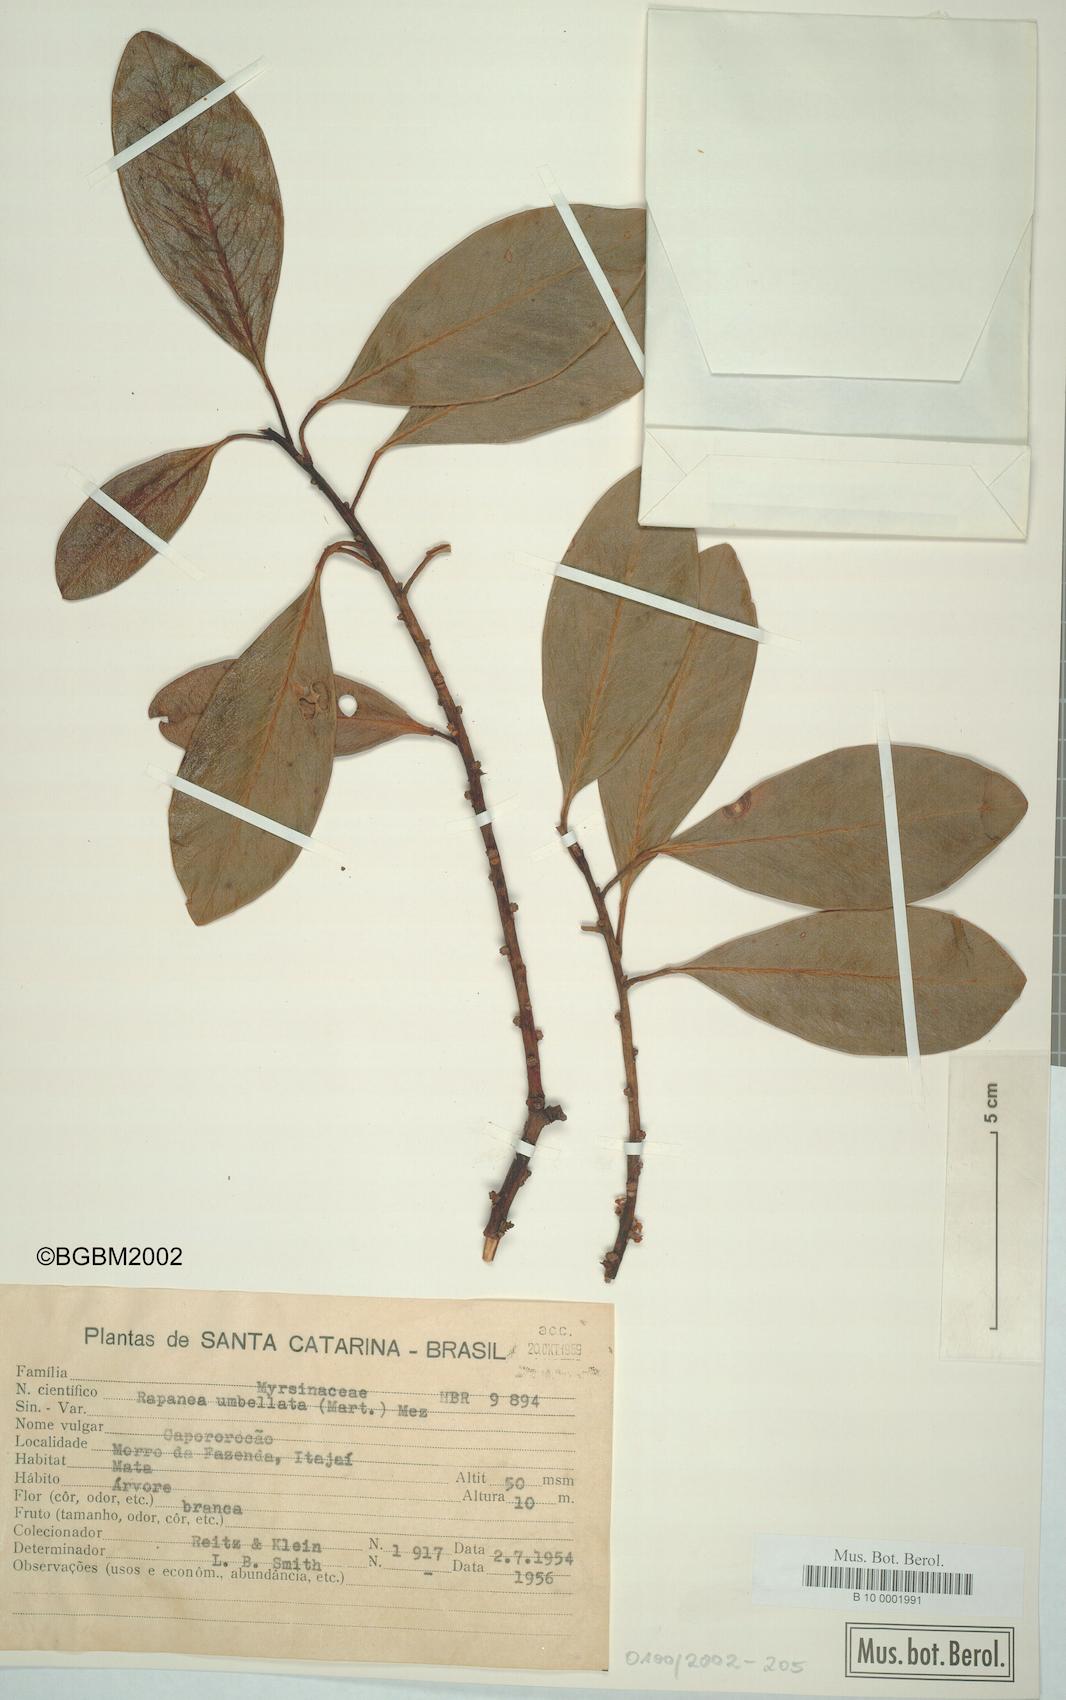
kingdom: Plantae
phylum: Tracheophyta
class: Magnoliopsida
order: Ericales
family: Primulaceae
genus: Myrsine
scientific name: Myrsine umbellata
